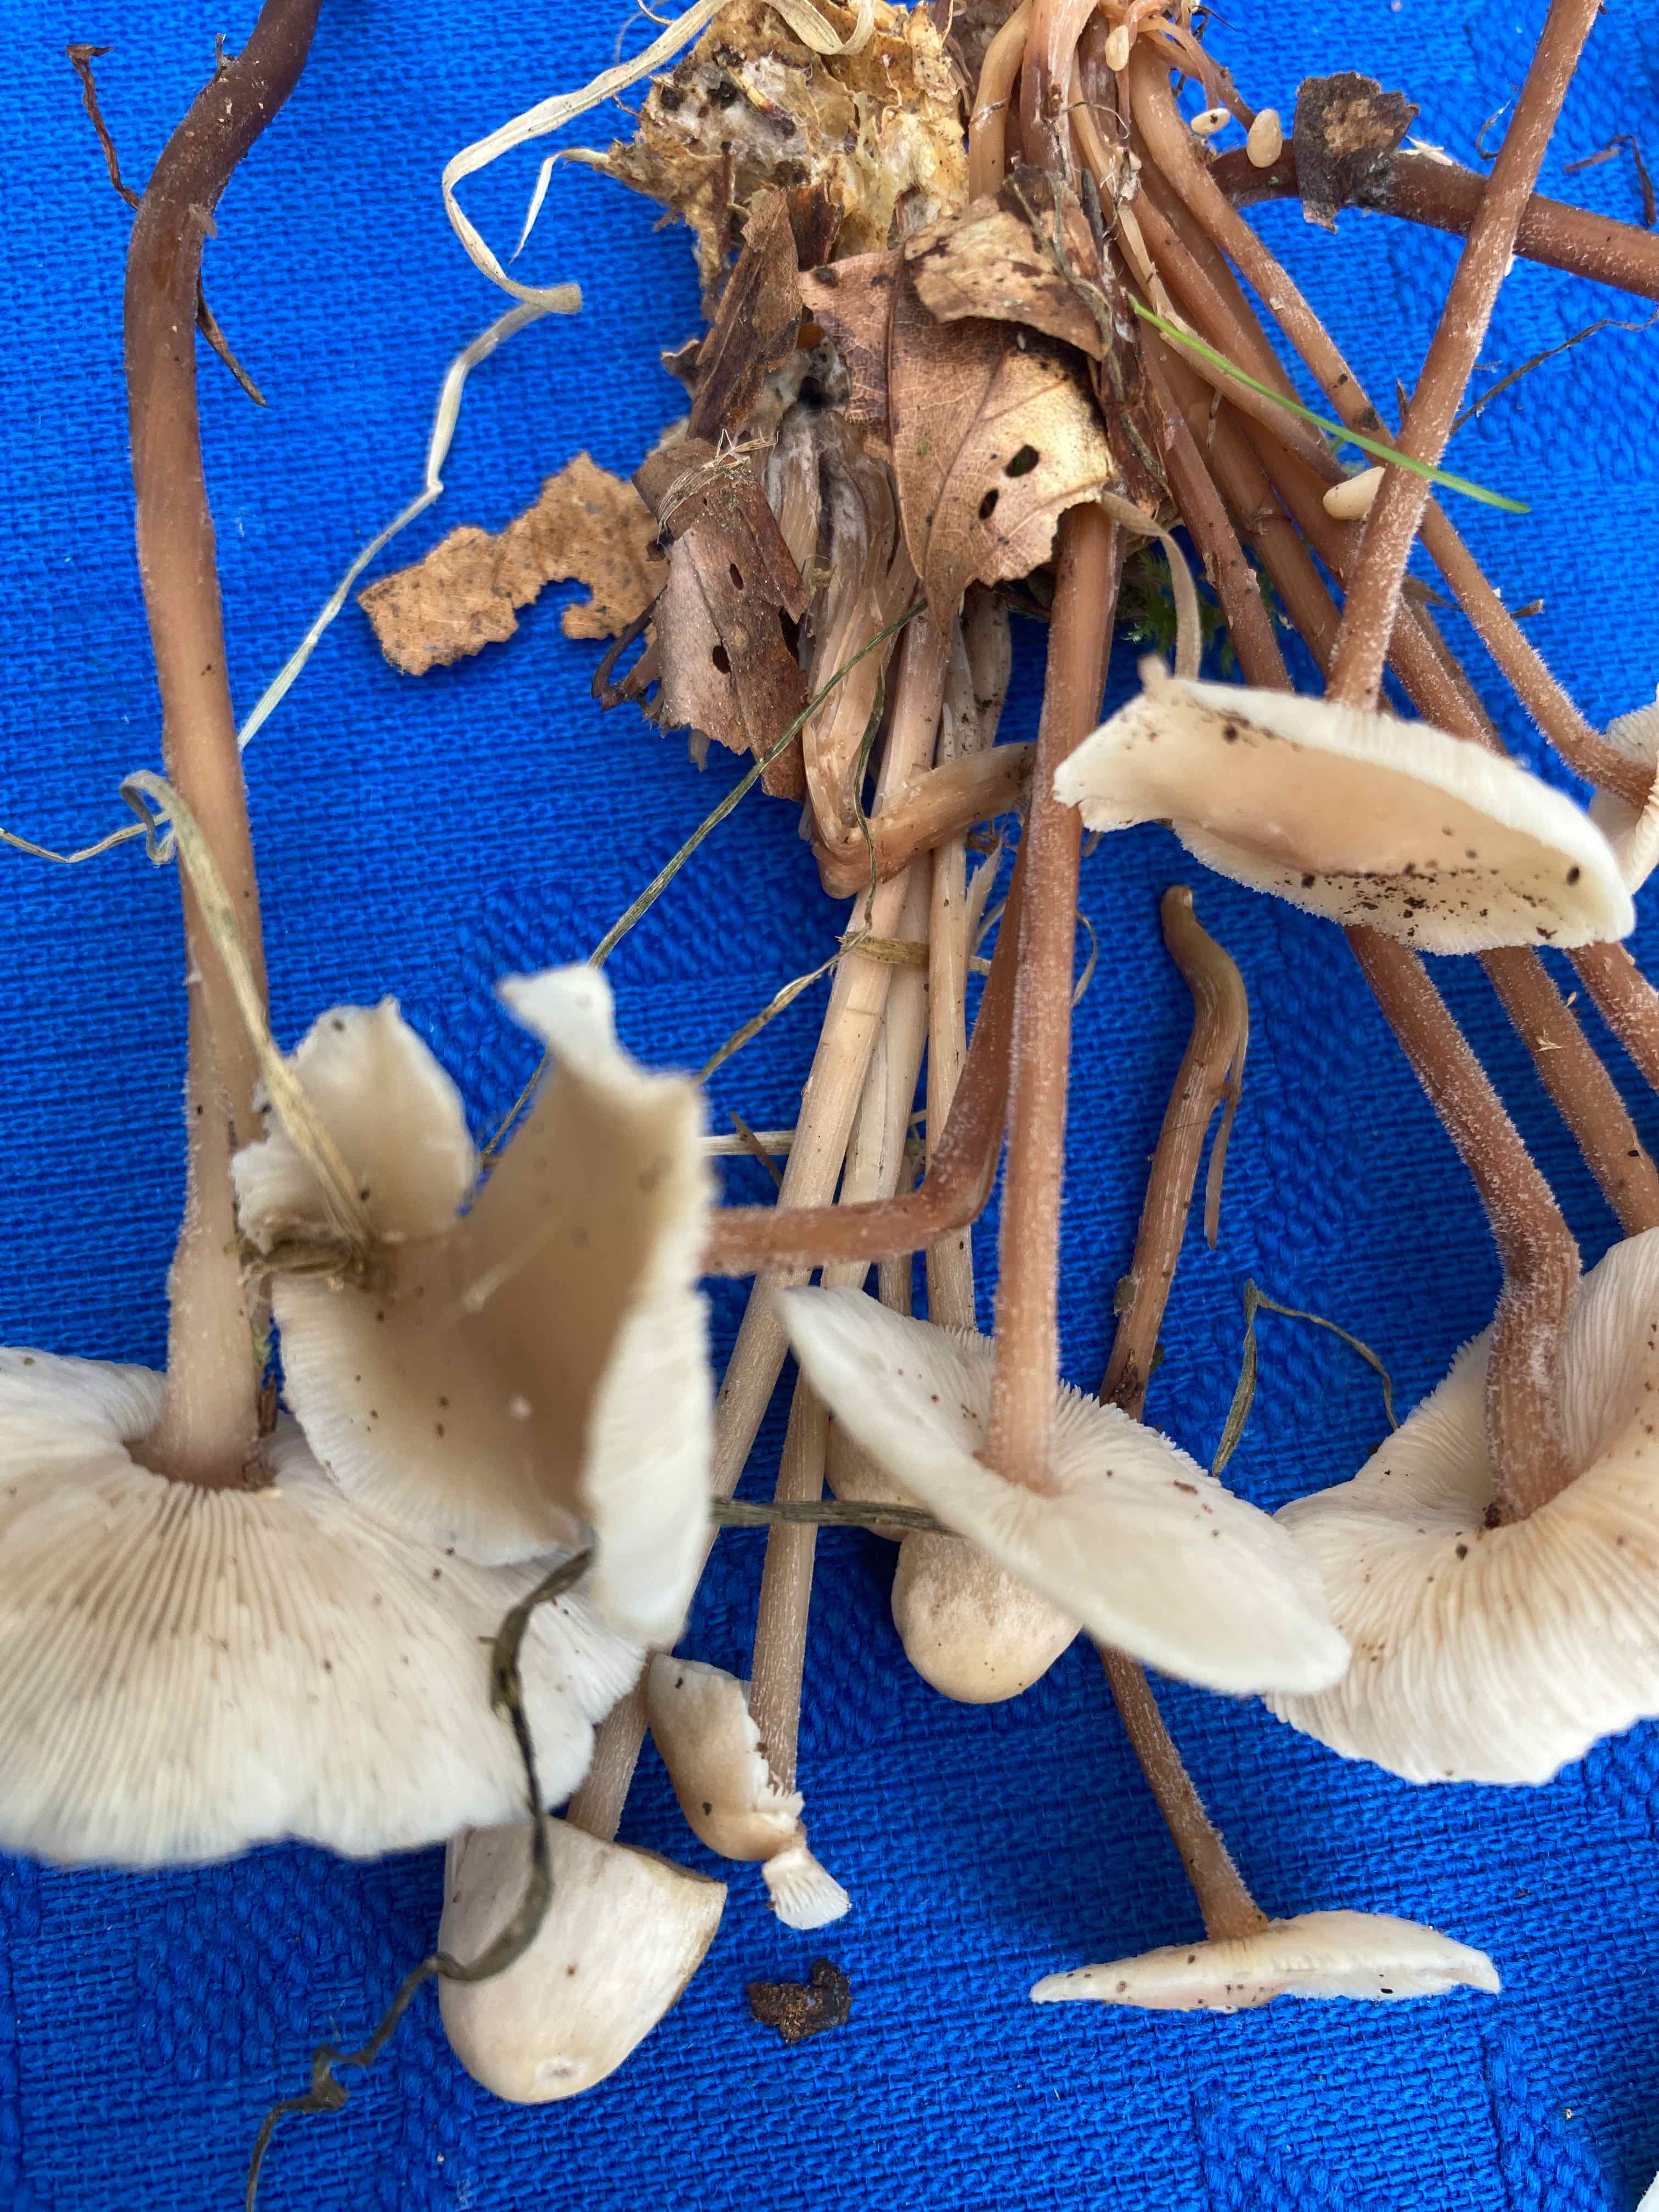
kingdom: Fungi
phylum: Basidiomycota
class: Agaricomycetes
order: Agaricales
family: Omphalotaceae
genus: Collybiopsis
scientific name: Collybiopsis confluens
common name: knippe-fladhat
